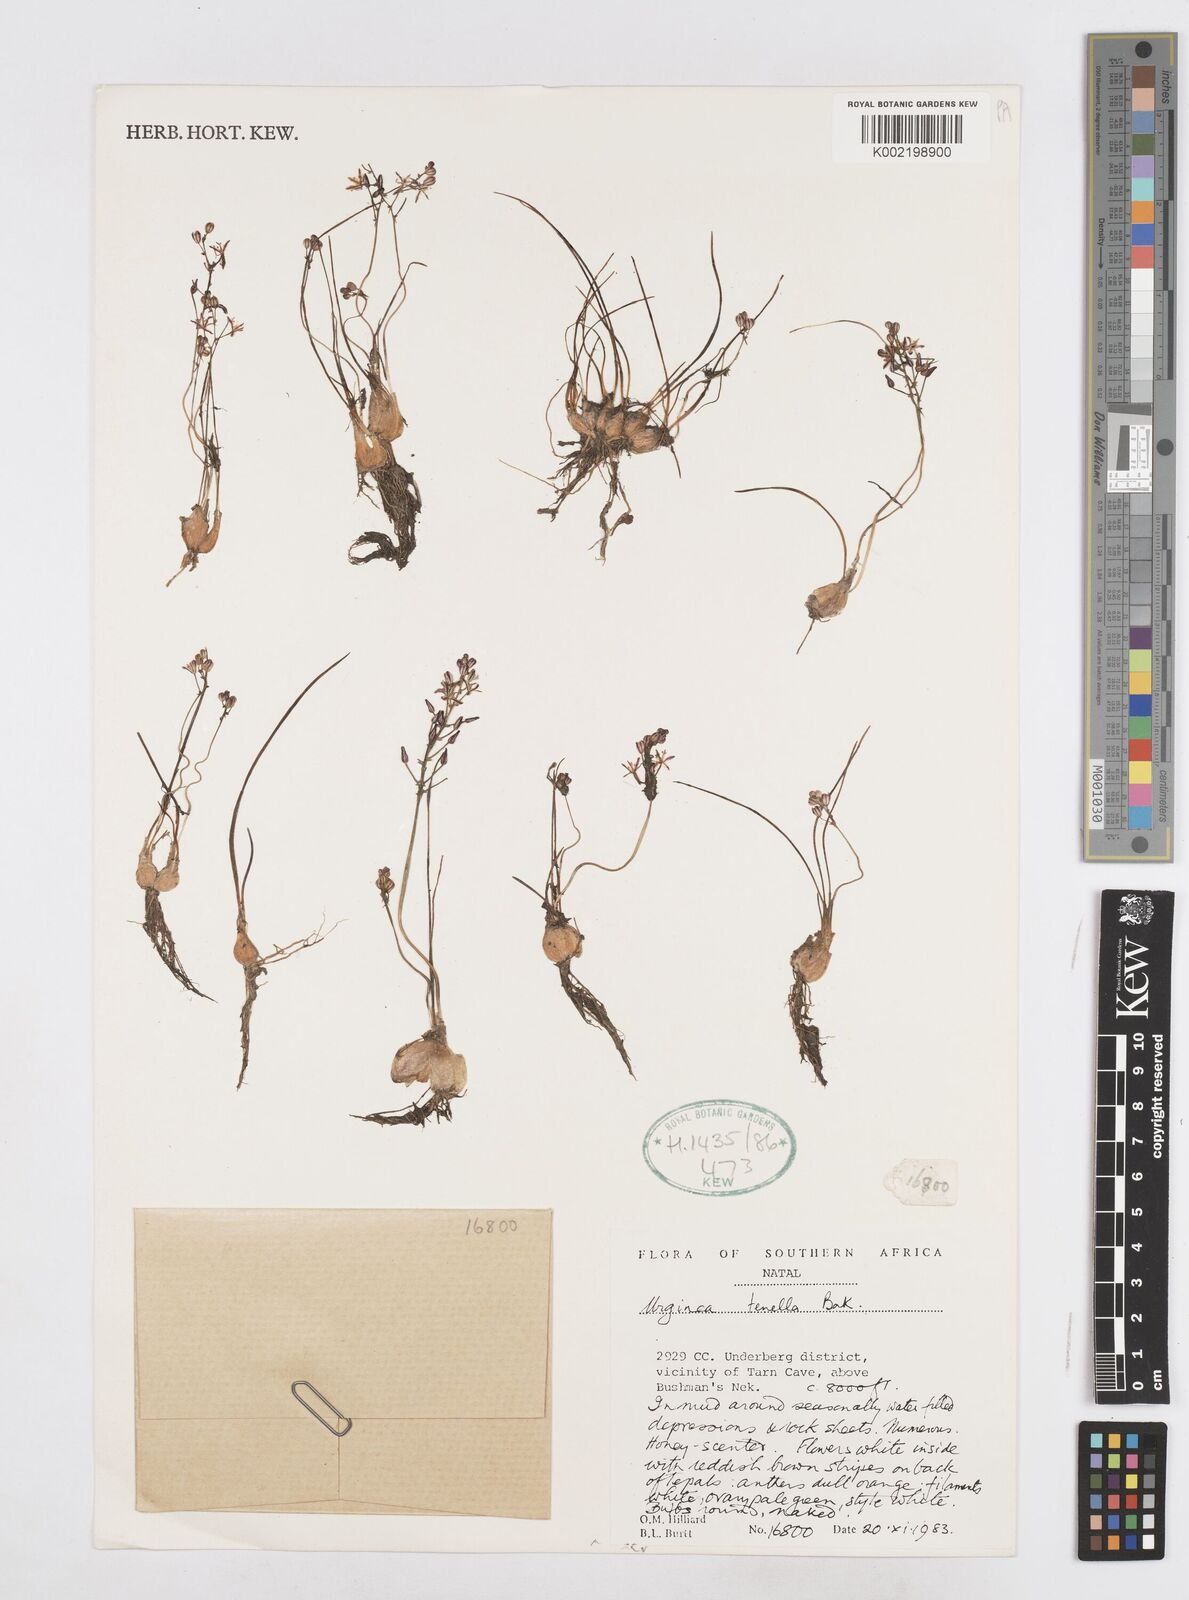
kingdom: Plantae
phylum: Tracheophyta
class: Liliopsida
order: Asparagales
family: Asparagaceae
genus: Drimia
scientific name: Drimia
